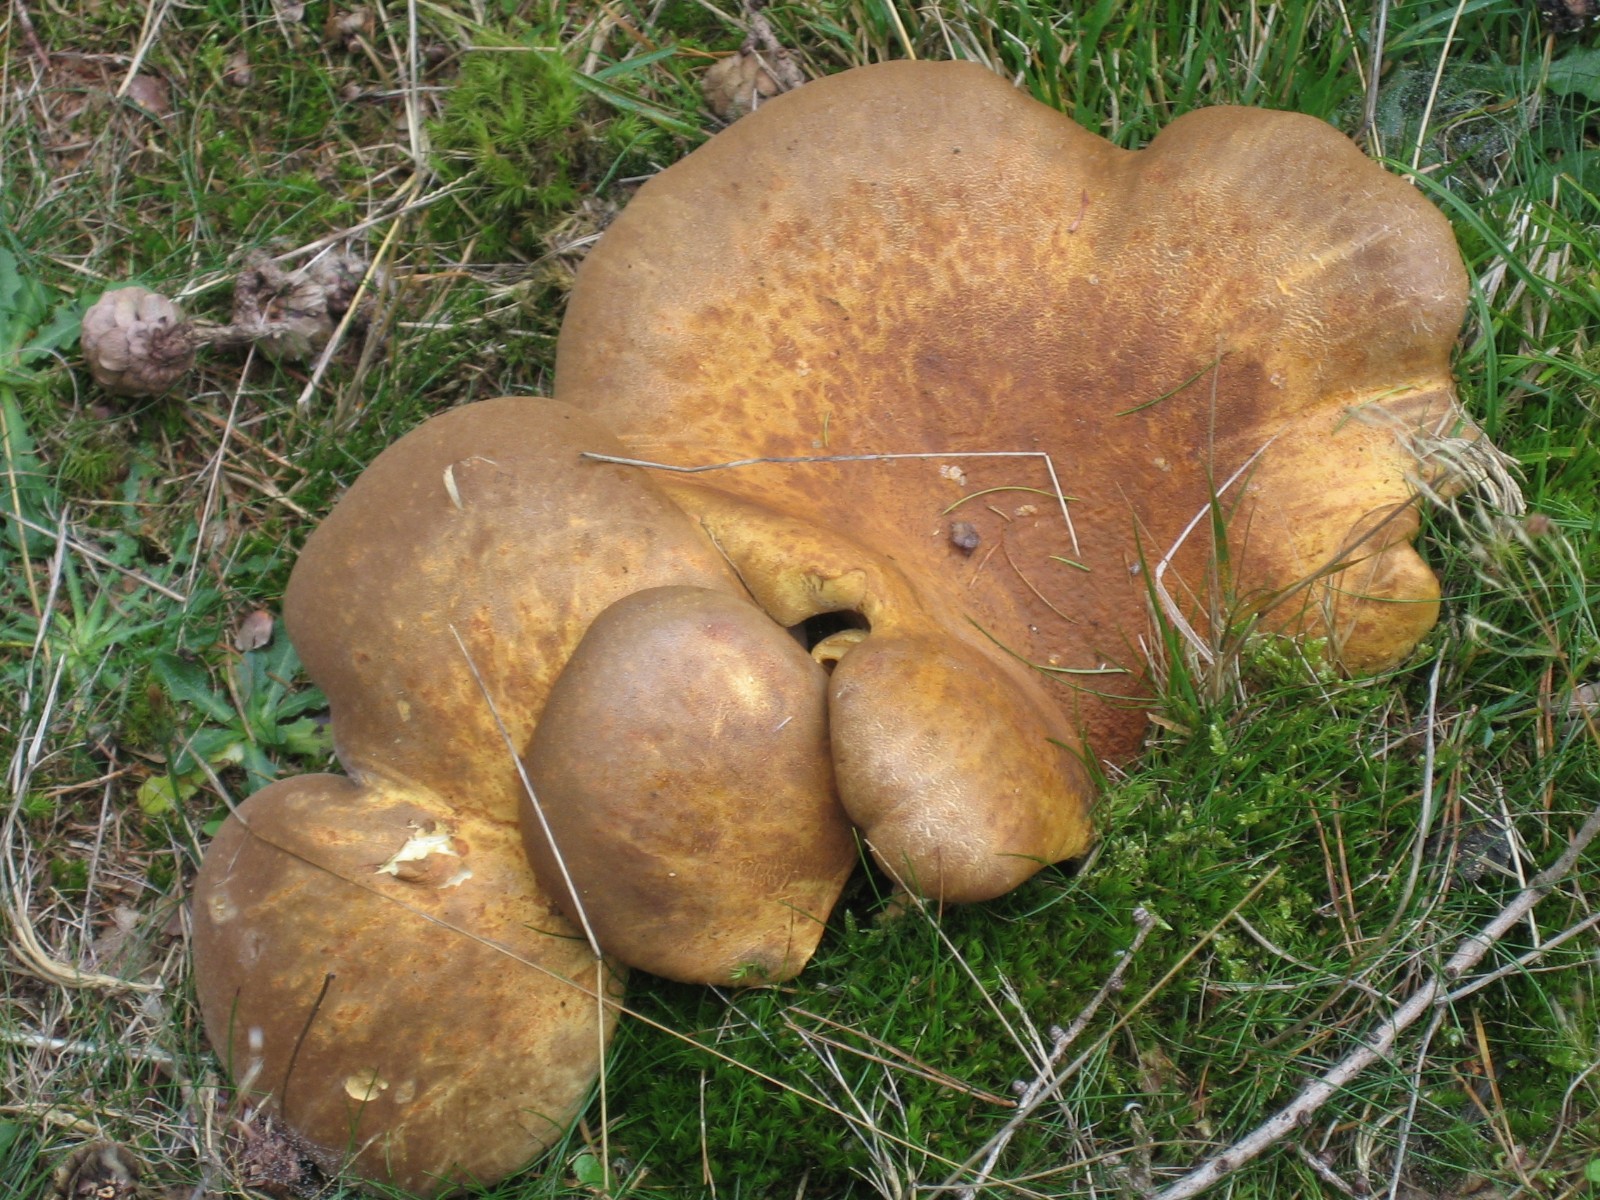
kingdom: Fungi
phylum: Basidiomycota
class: Agaricomycetes
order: Boletales
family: Tapinellaceae
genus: Tapinella
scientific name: Tapinella atrotomentosa
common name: sortfiltet viftesvamp
